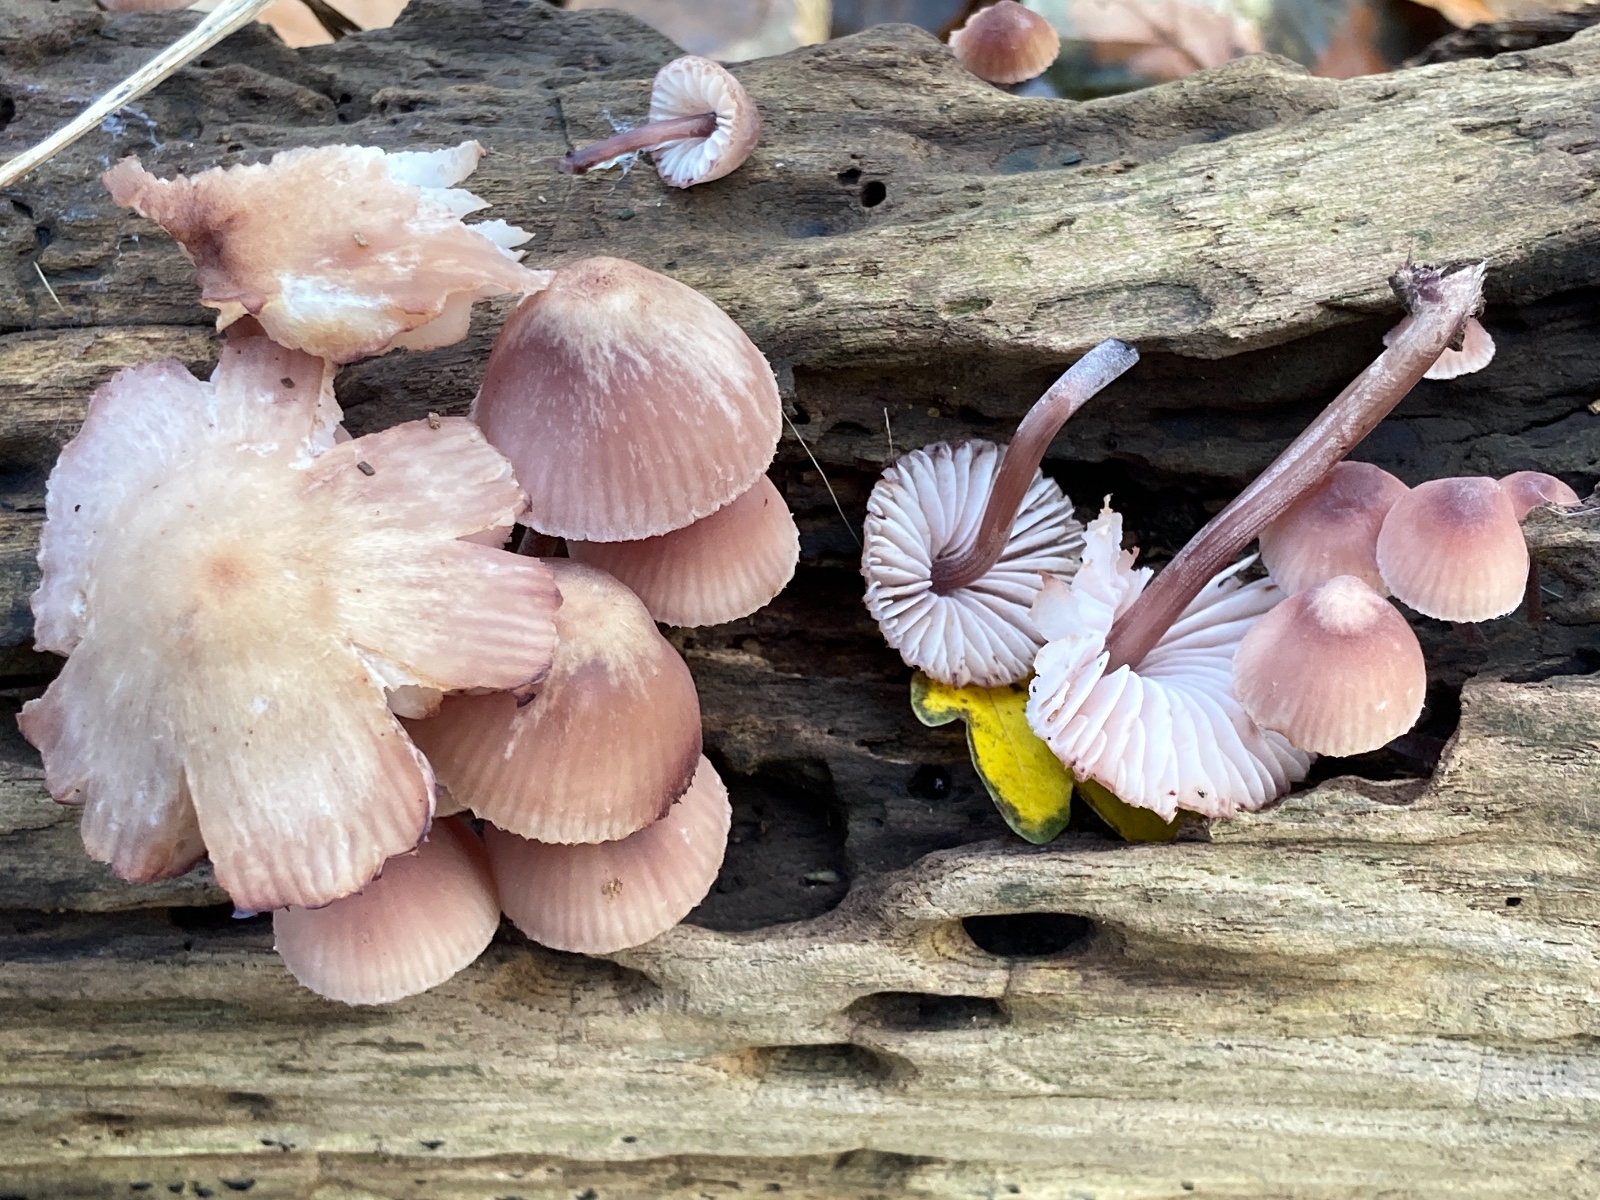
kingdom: Fungi
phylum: Basidiomycota
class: Agaricomycetes
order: Agaricales
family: Mycenaceae
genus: Mycena
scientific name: Mycena haematopus
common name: blødende huesvamp
